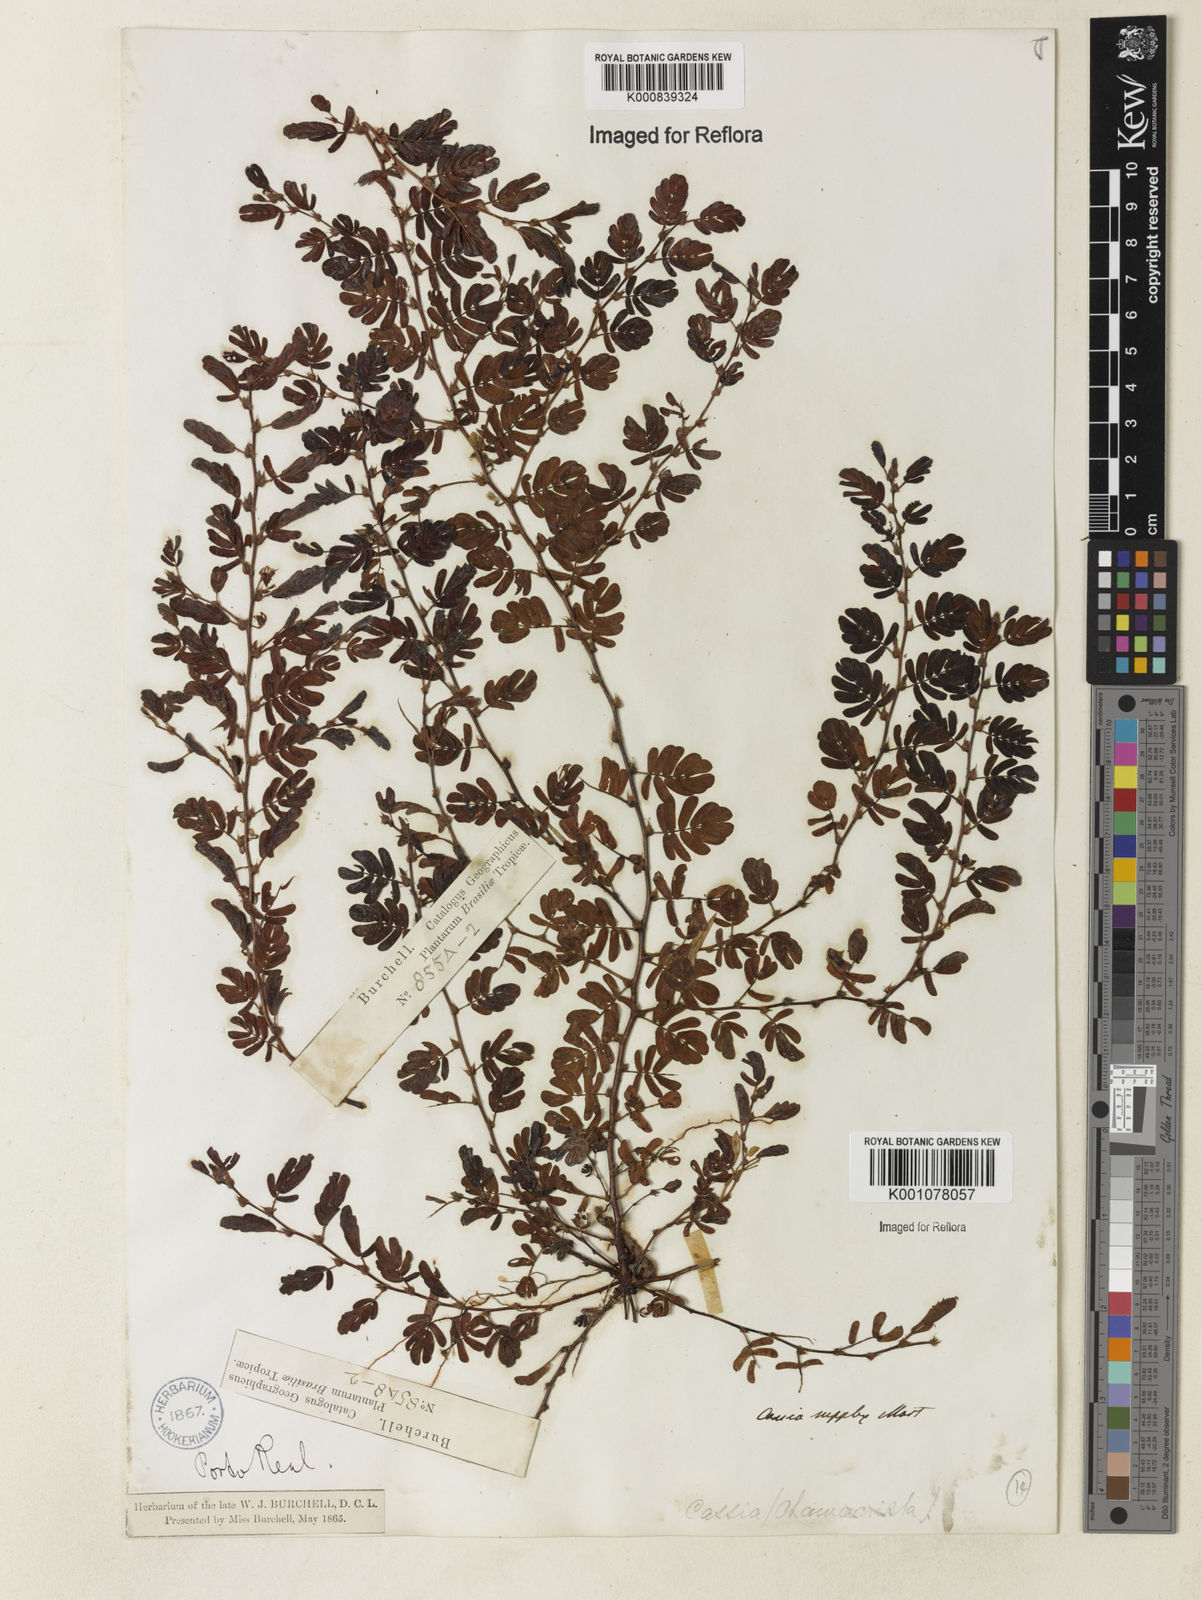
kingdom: Plantae
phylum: Tracheophyta
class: Magnoliopsida
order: Fabales
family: Fabaceae
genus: Chamaecrista
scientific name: Chamaecrista supplex
